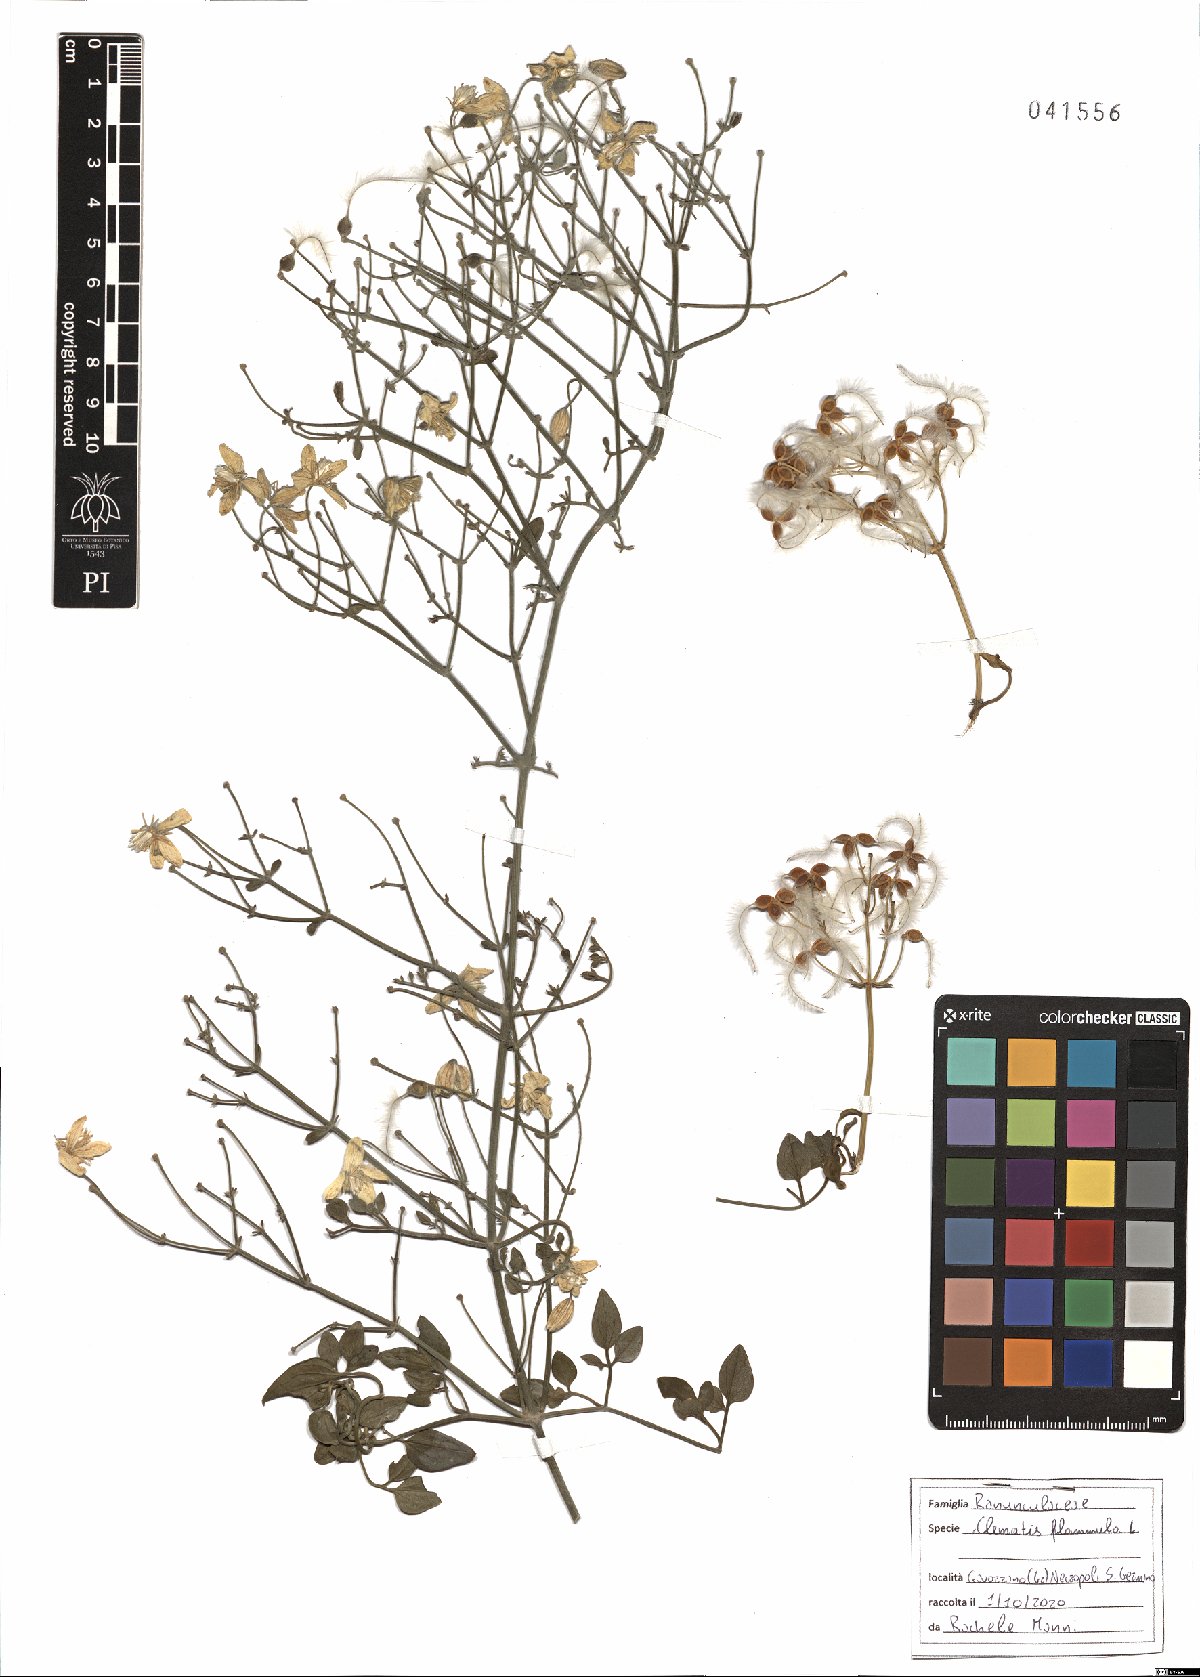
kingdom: Plantae
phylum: Tracheophyta
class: Magnoliopsida
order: Ranunculales
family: Ranunculaceae
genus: Clematis
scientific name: Clematis flammula
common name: Virgin's-bower
